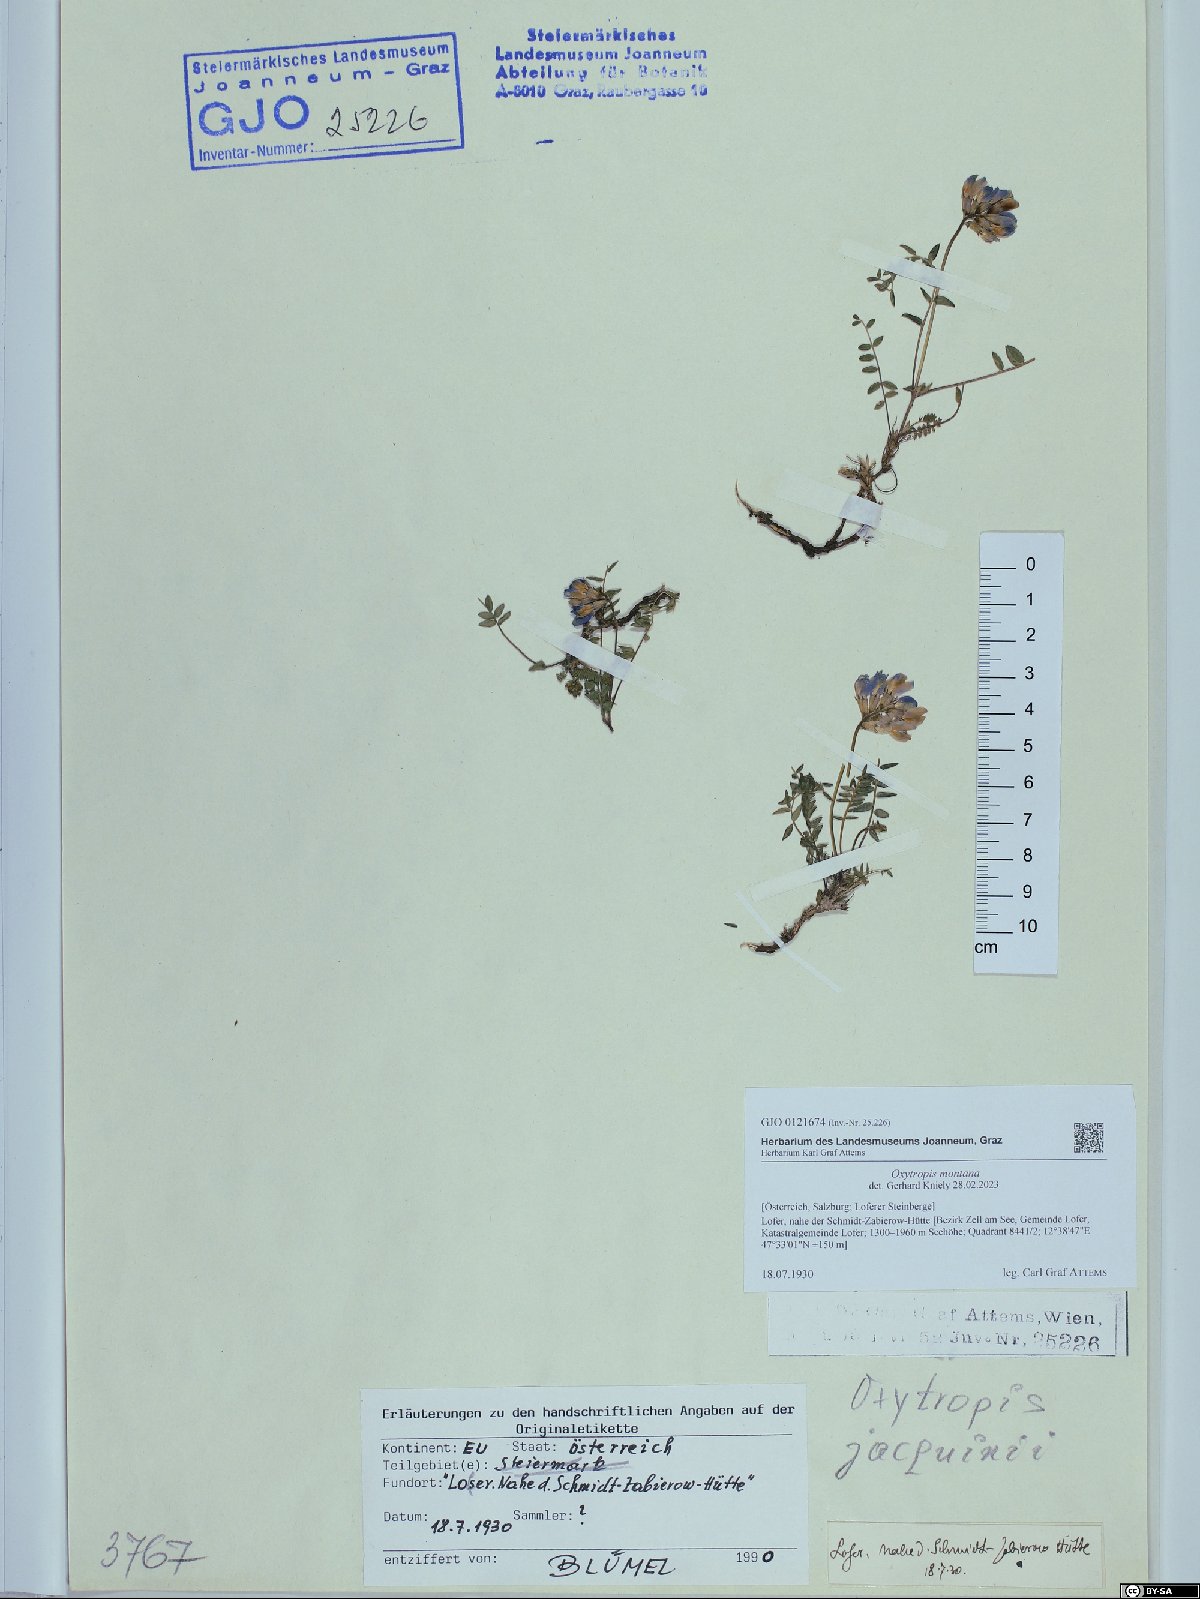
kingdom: Plantae
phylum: Tracheophyta
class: Magnoliopsida
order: Fabales
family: Fabaceae
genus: Oxytropis
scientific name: Oxytropis montana
